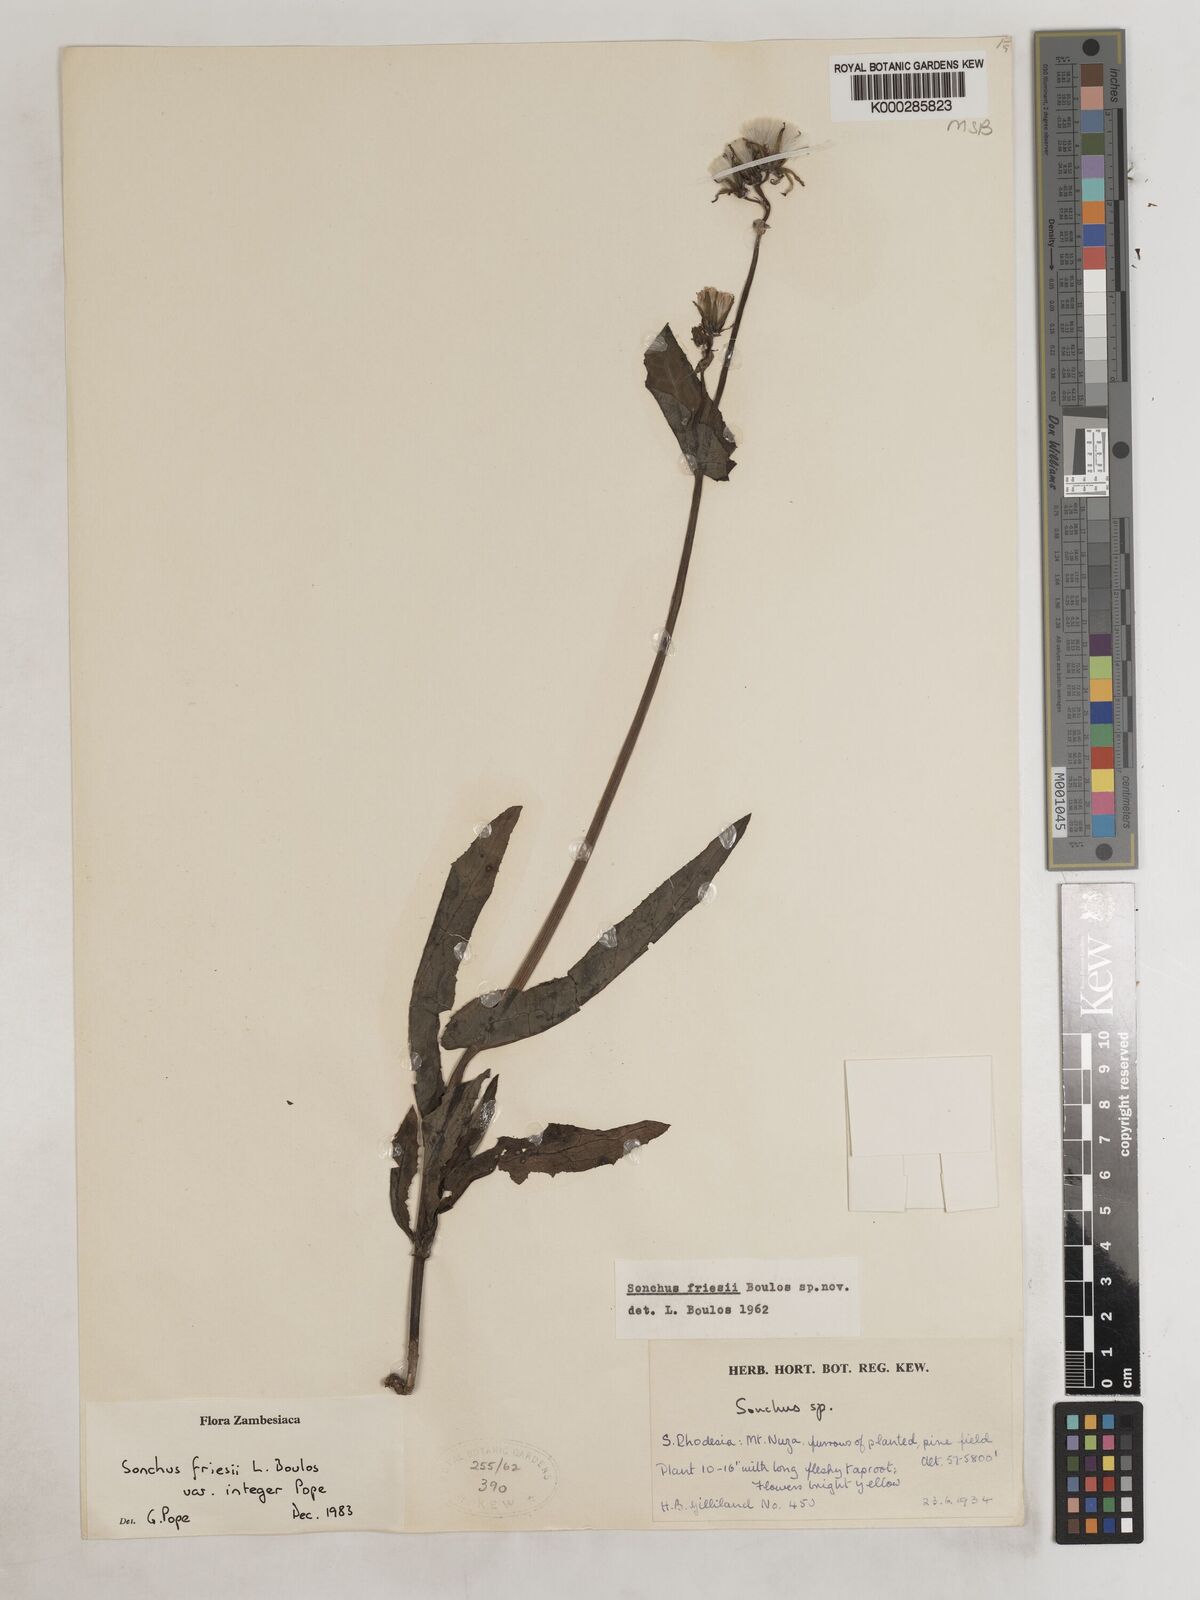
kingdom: Plantae
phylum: Tracheophyta
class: Magnoliopsida
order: Asterales
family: Asteraceae
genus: Sonchus
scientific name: Sonchus friesii
